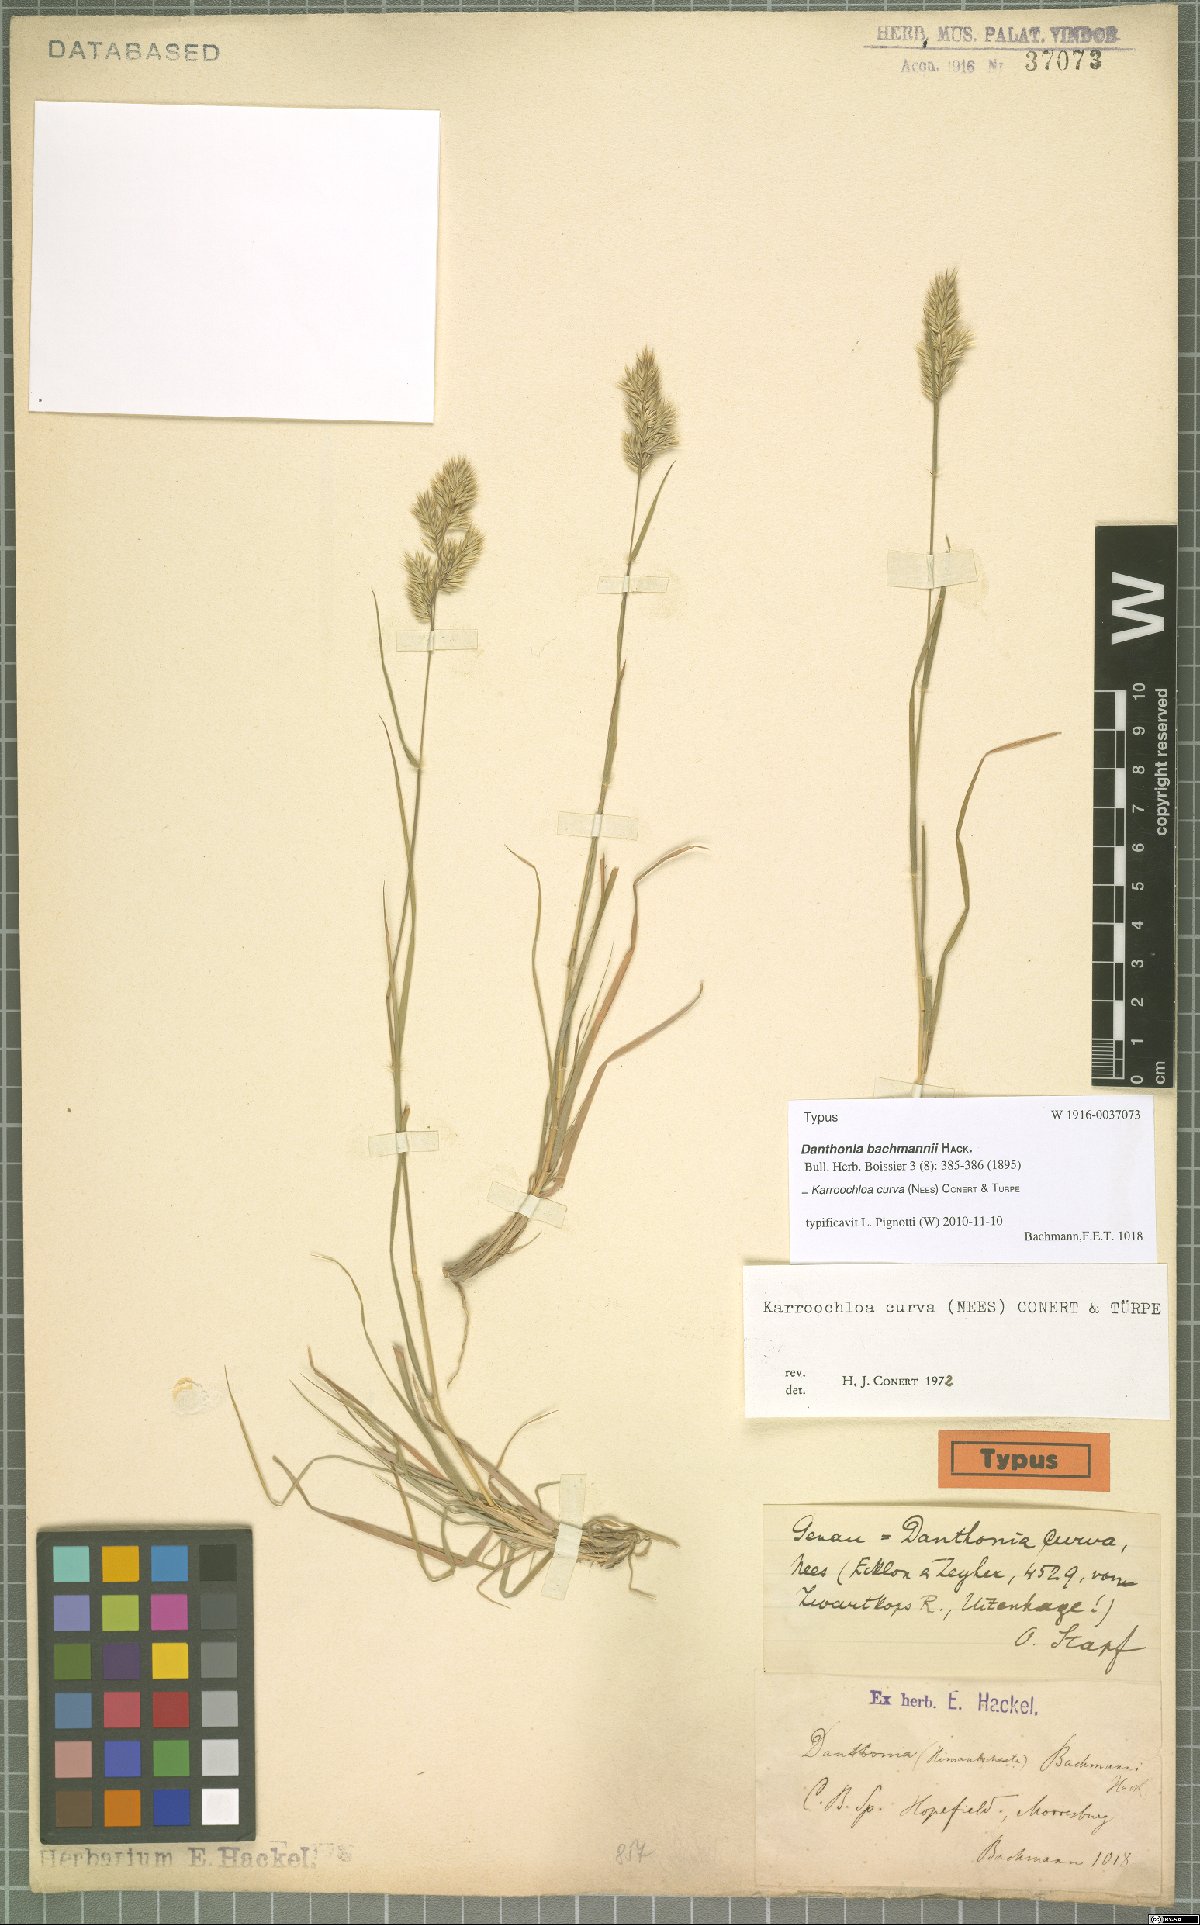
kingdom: Plantae
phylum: Tracheophyta
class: Liliopsida
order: Poales
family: Poaceae
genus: Tribolium
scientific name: Tribolium curvum
